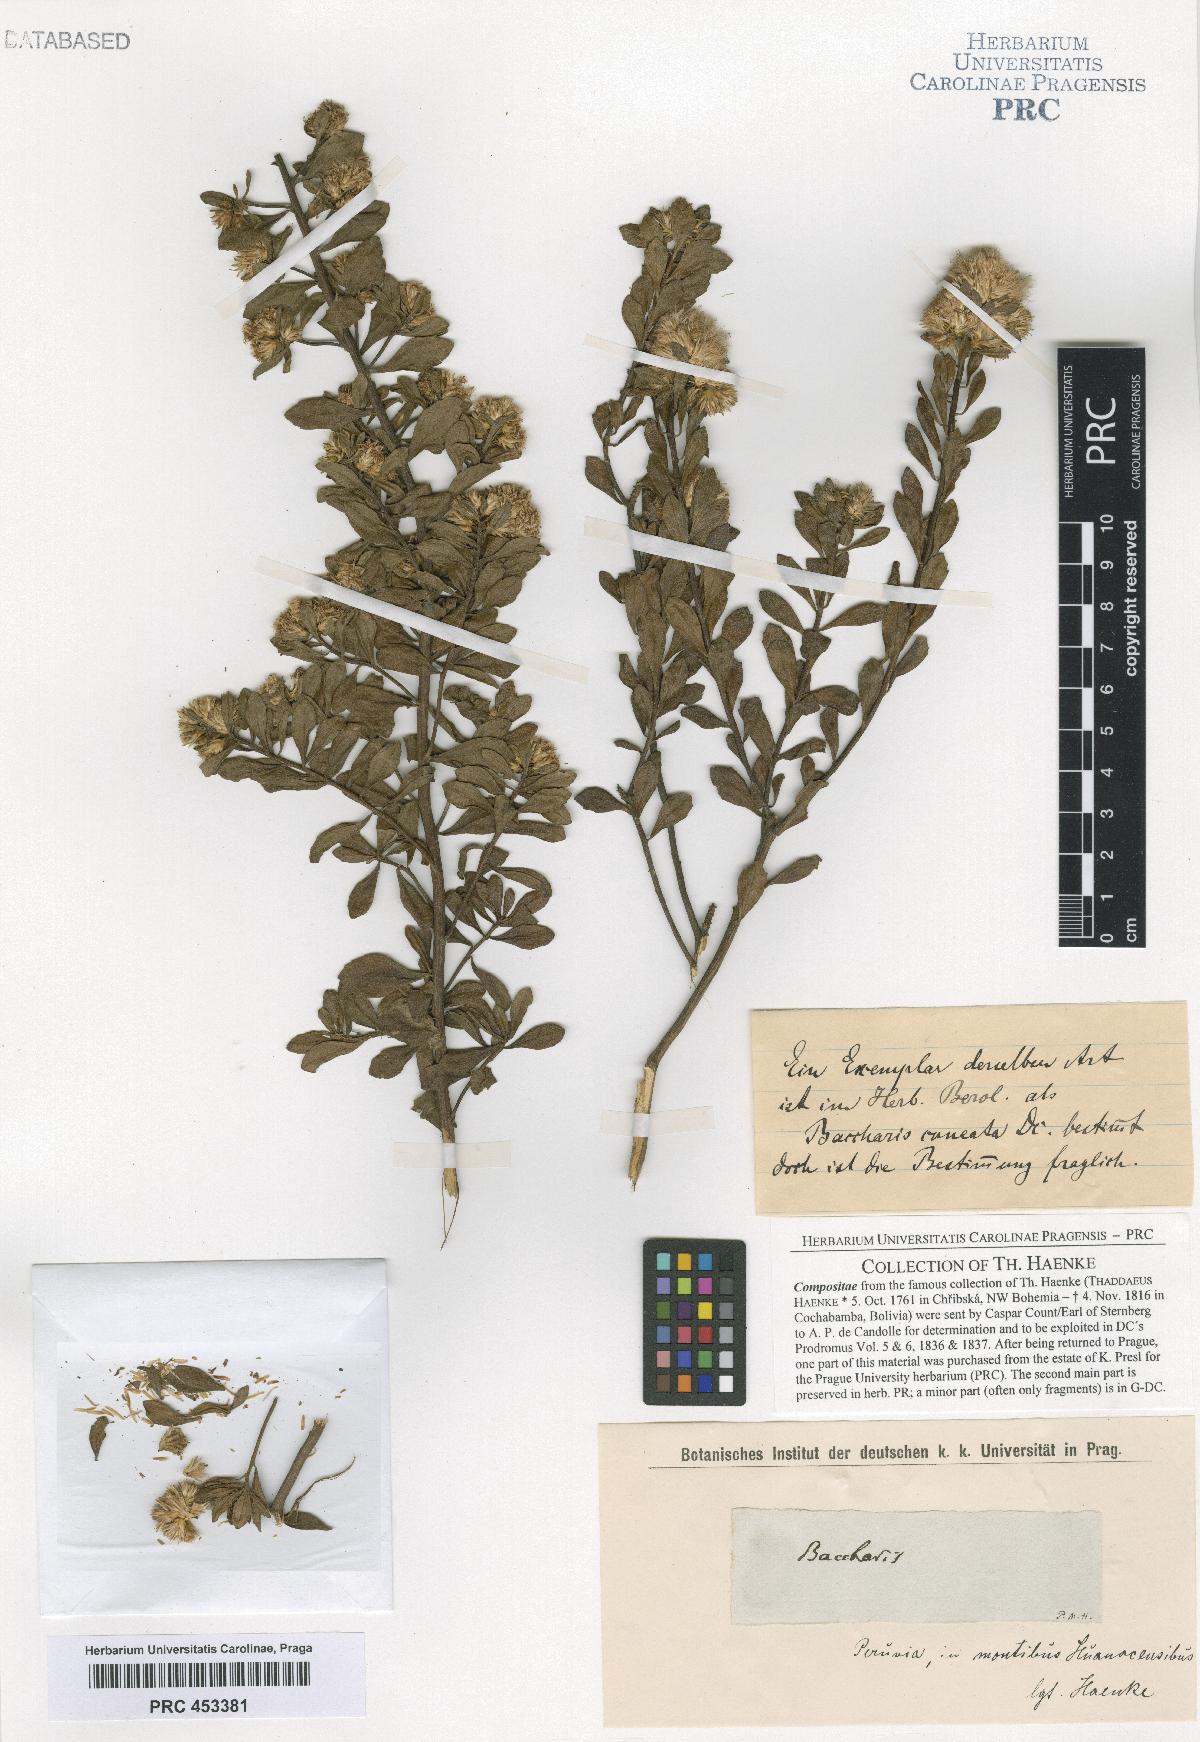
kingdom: Plantae
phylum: Tracheophyta
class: Magnoliopsida
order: Asterales
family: Asteraceae
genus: Baccharis
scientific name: Baccharis
